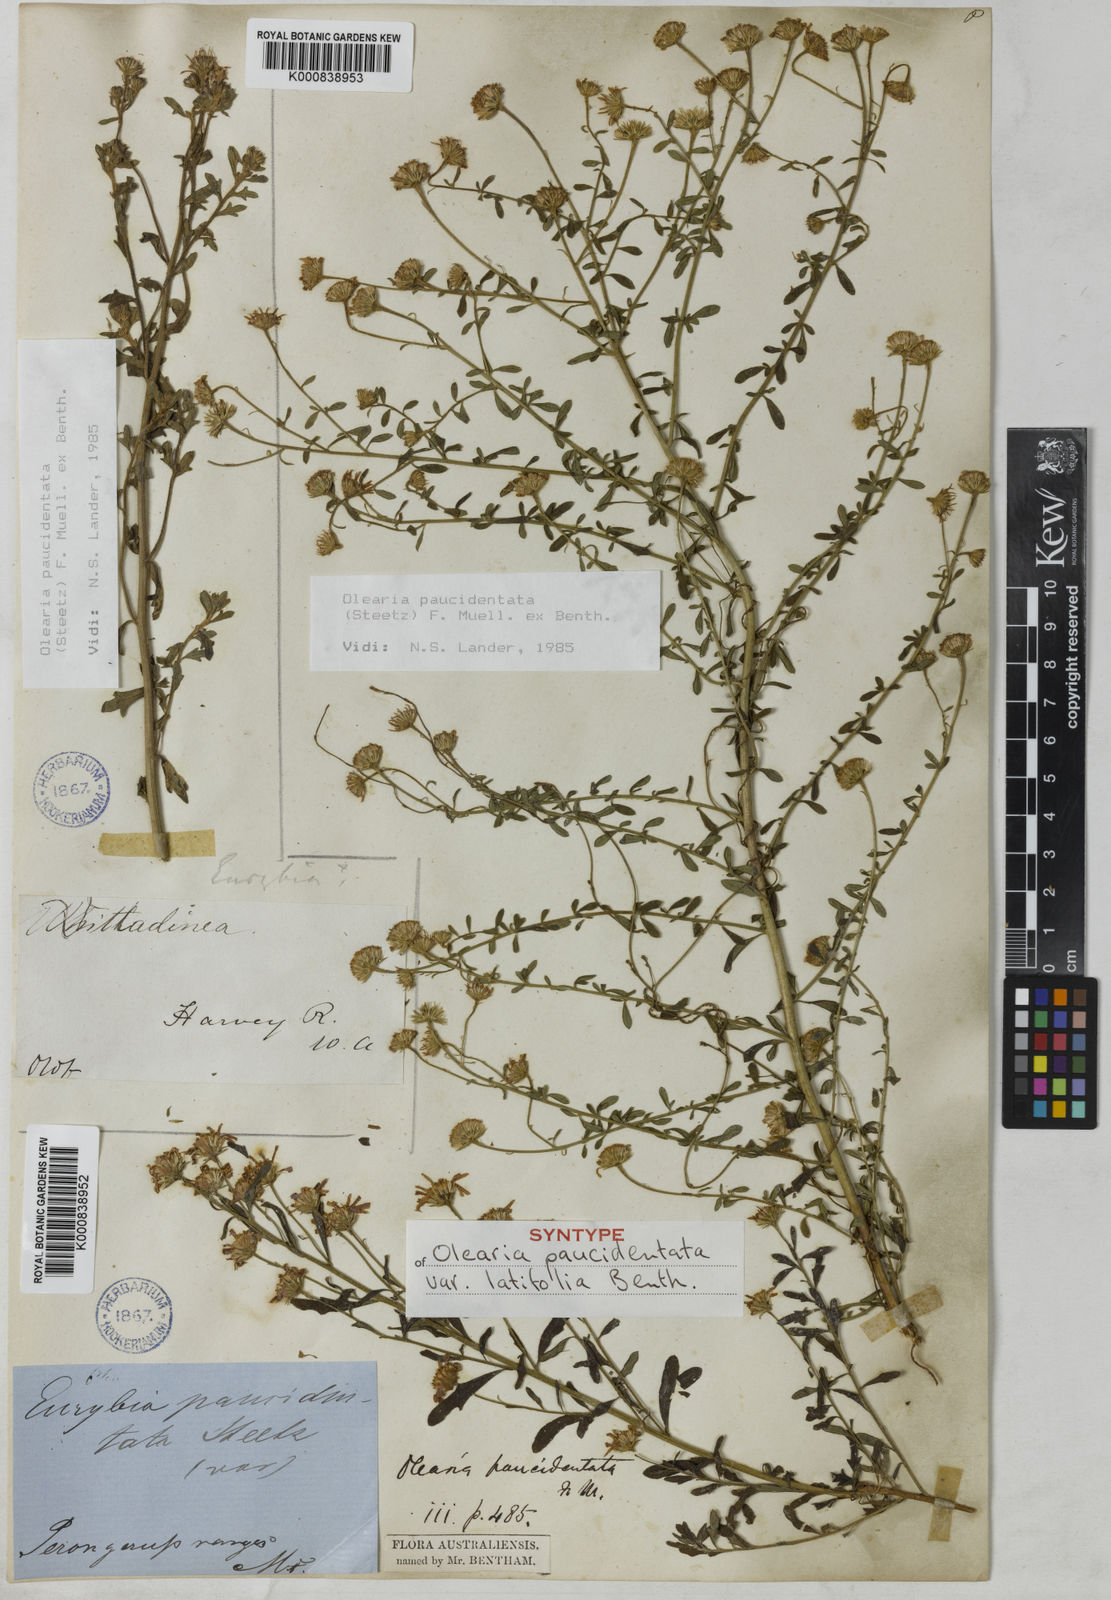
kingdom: Plantae
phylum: Tracheophyta
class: Magnoliopsida
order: Asterales
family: Asteraceae
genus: Olearia
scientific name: Olearia paucidentata
